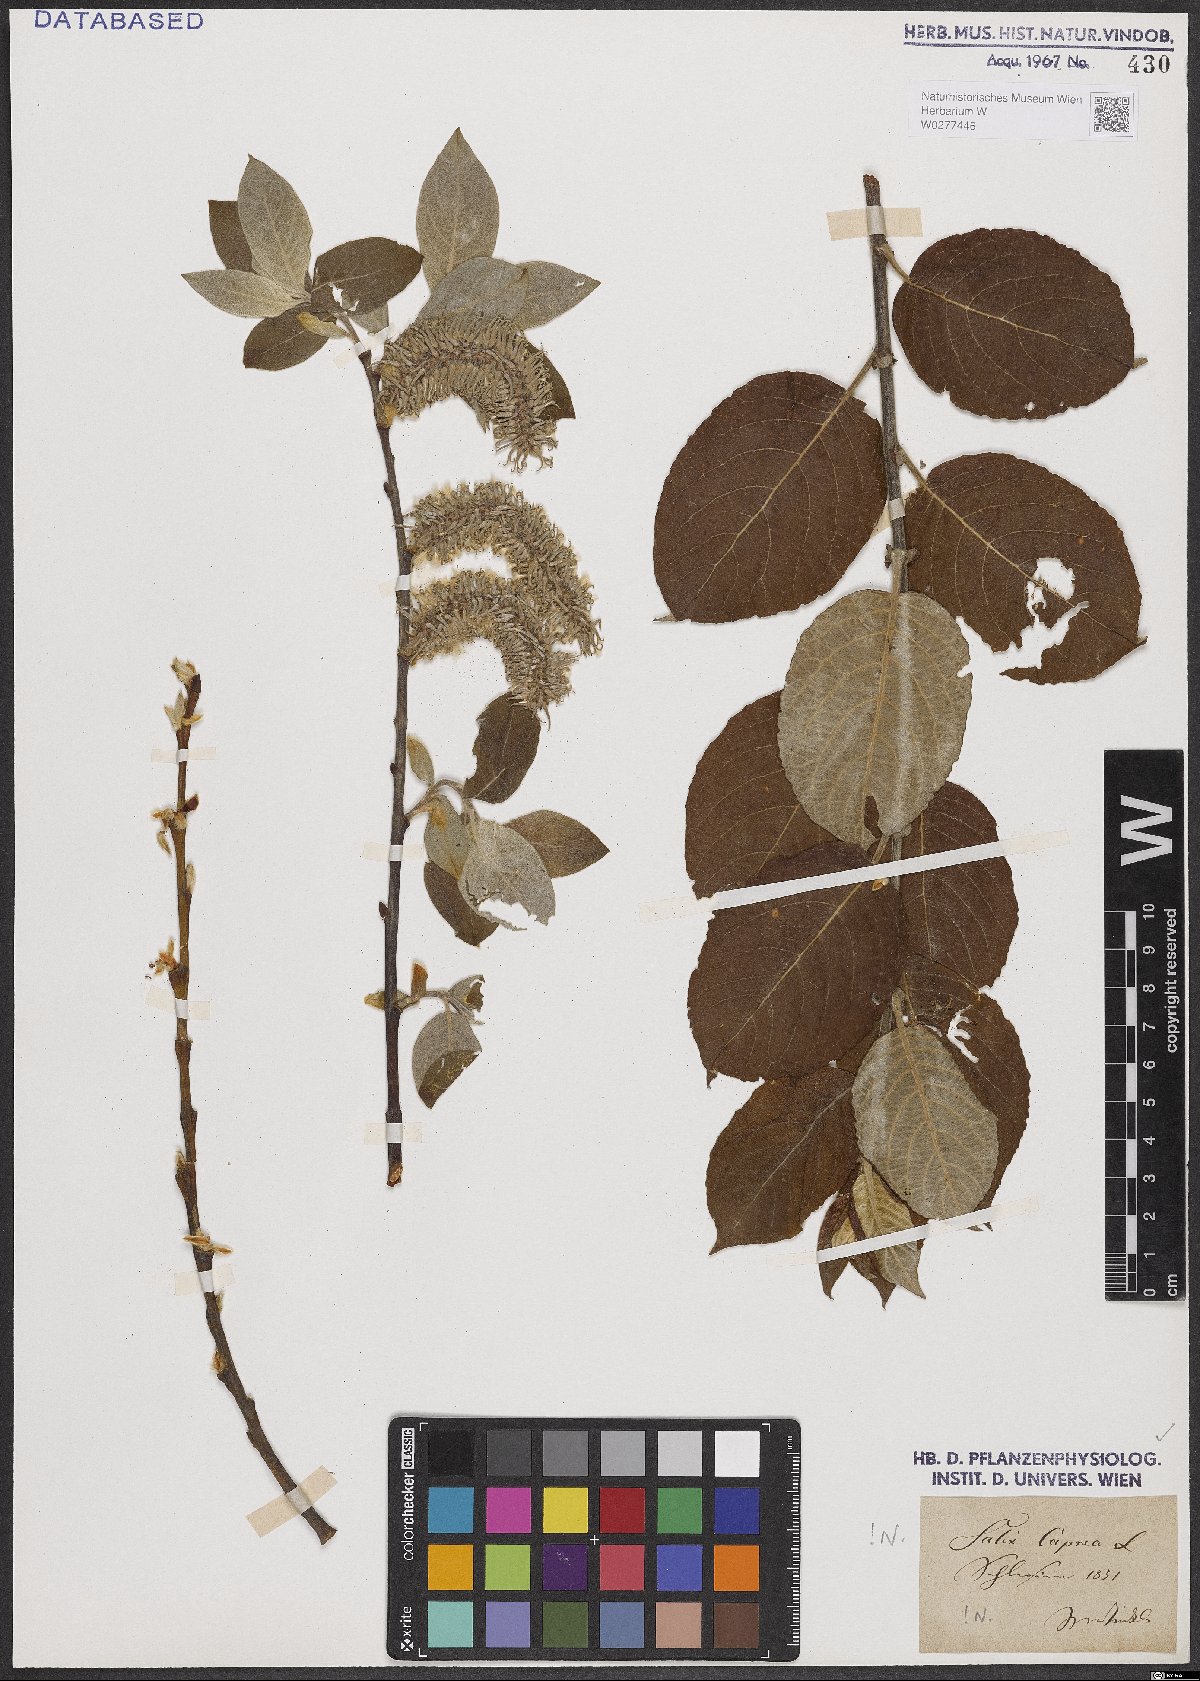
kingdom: Plantae
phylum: Tracheophyta
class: Magnoliopsida
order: Malpighiales
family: Salicaceae
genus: Salix
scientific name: Salix caprea
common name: Goat willow
